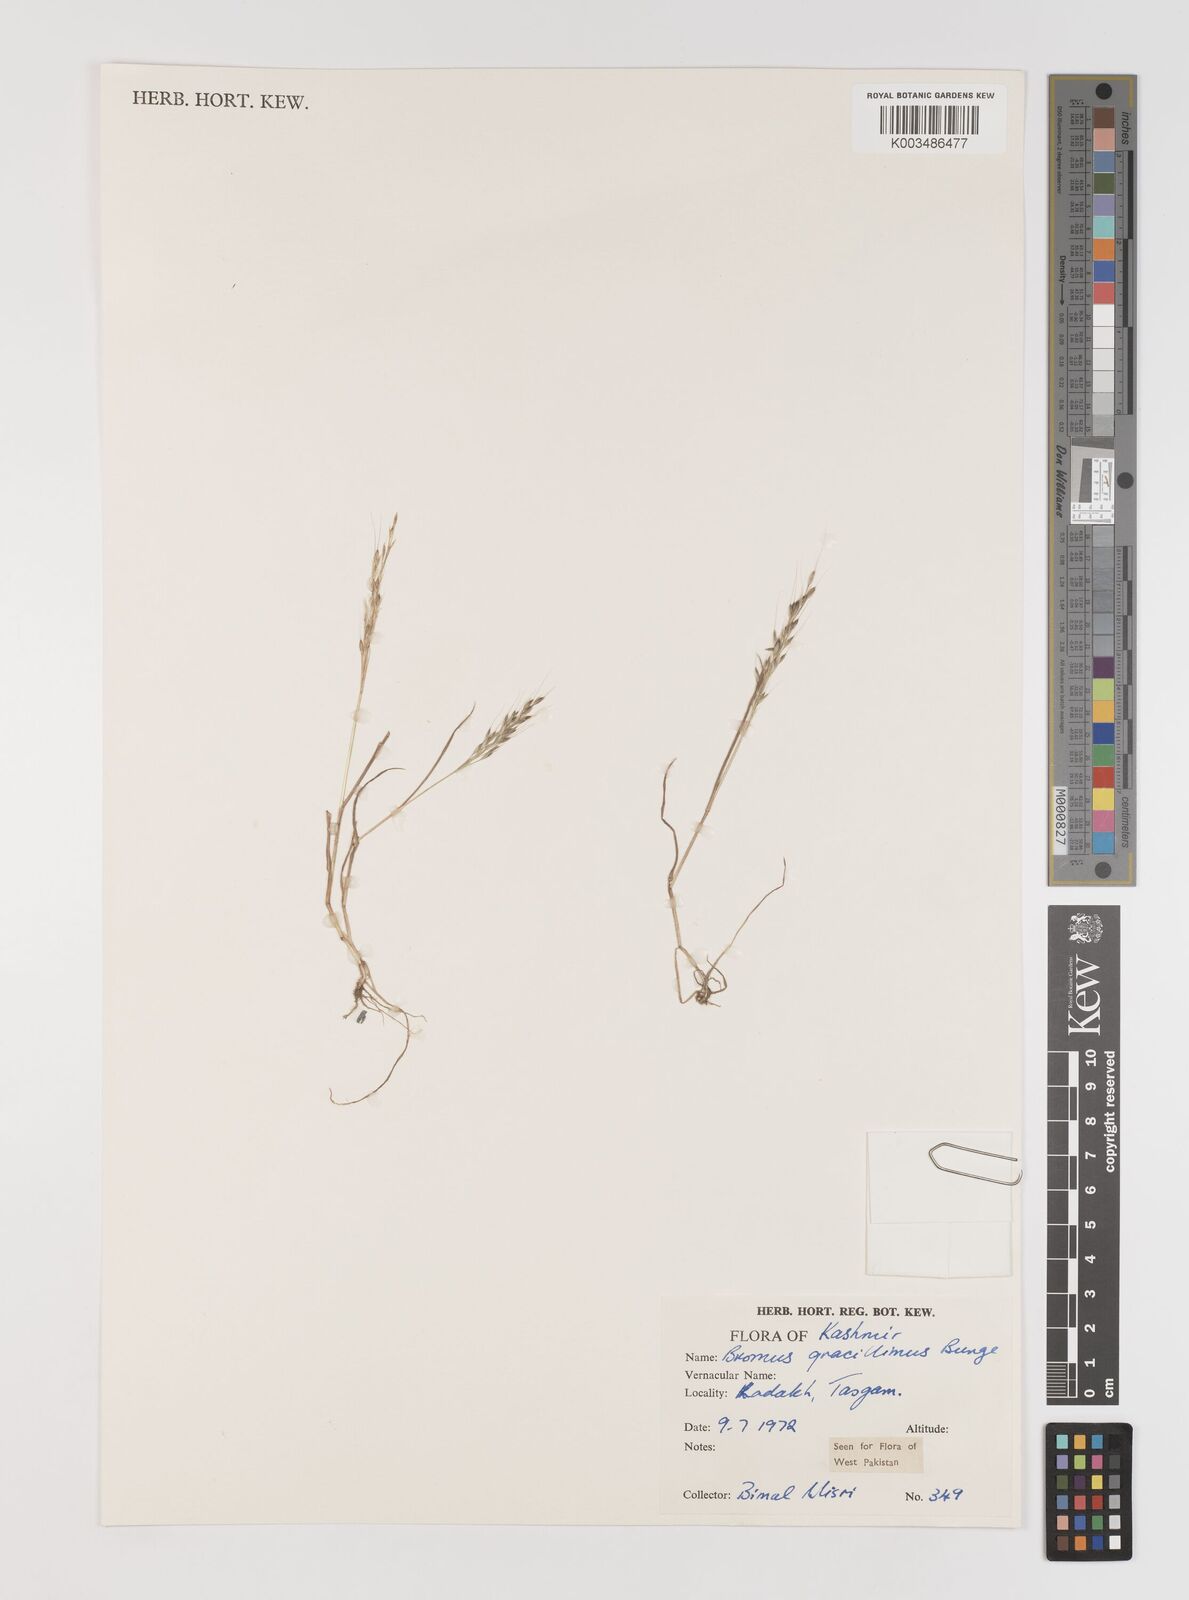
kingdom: Plantae
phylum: Tracheophyta
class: Liliopsida
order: Poales
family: Poaceae
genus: Bromus
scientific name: Bromus gracillimus
